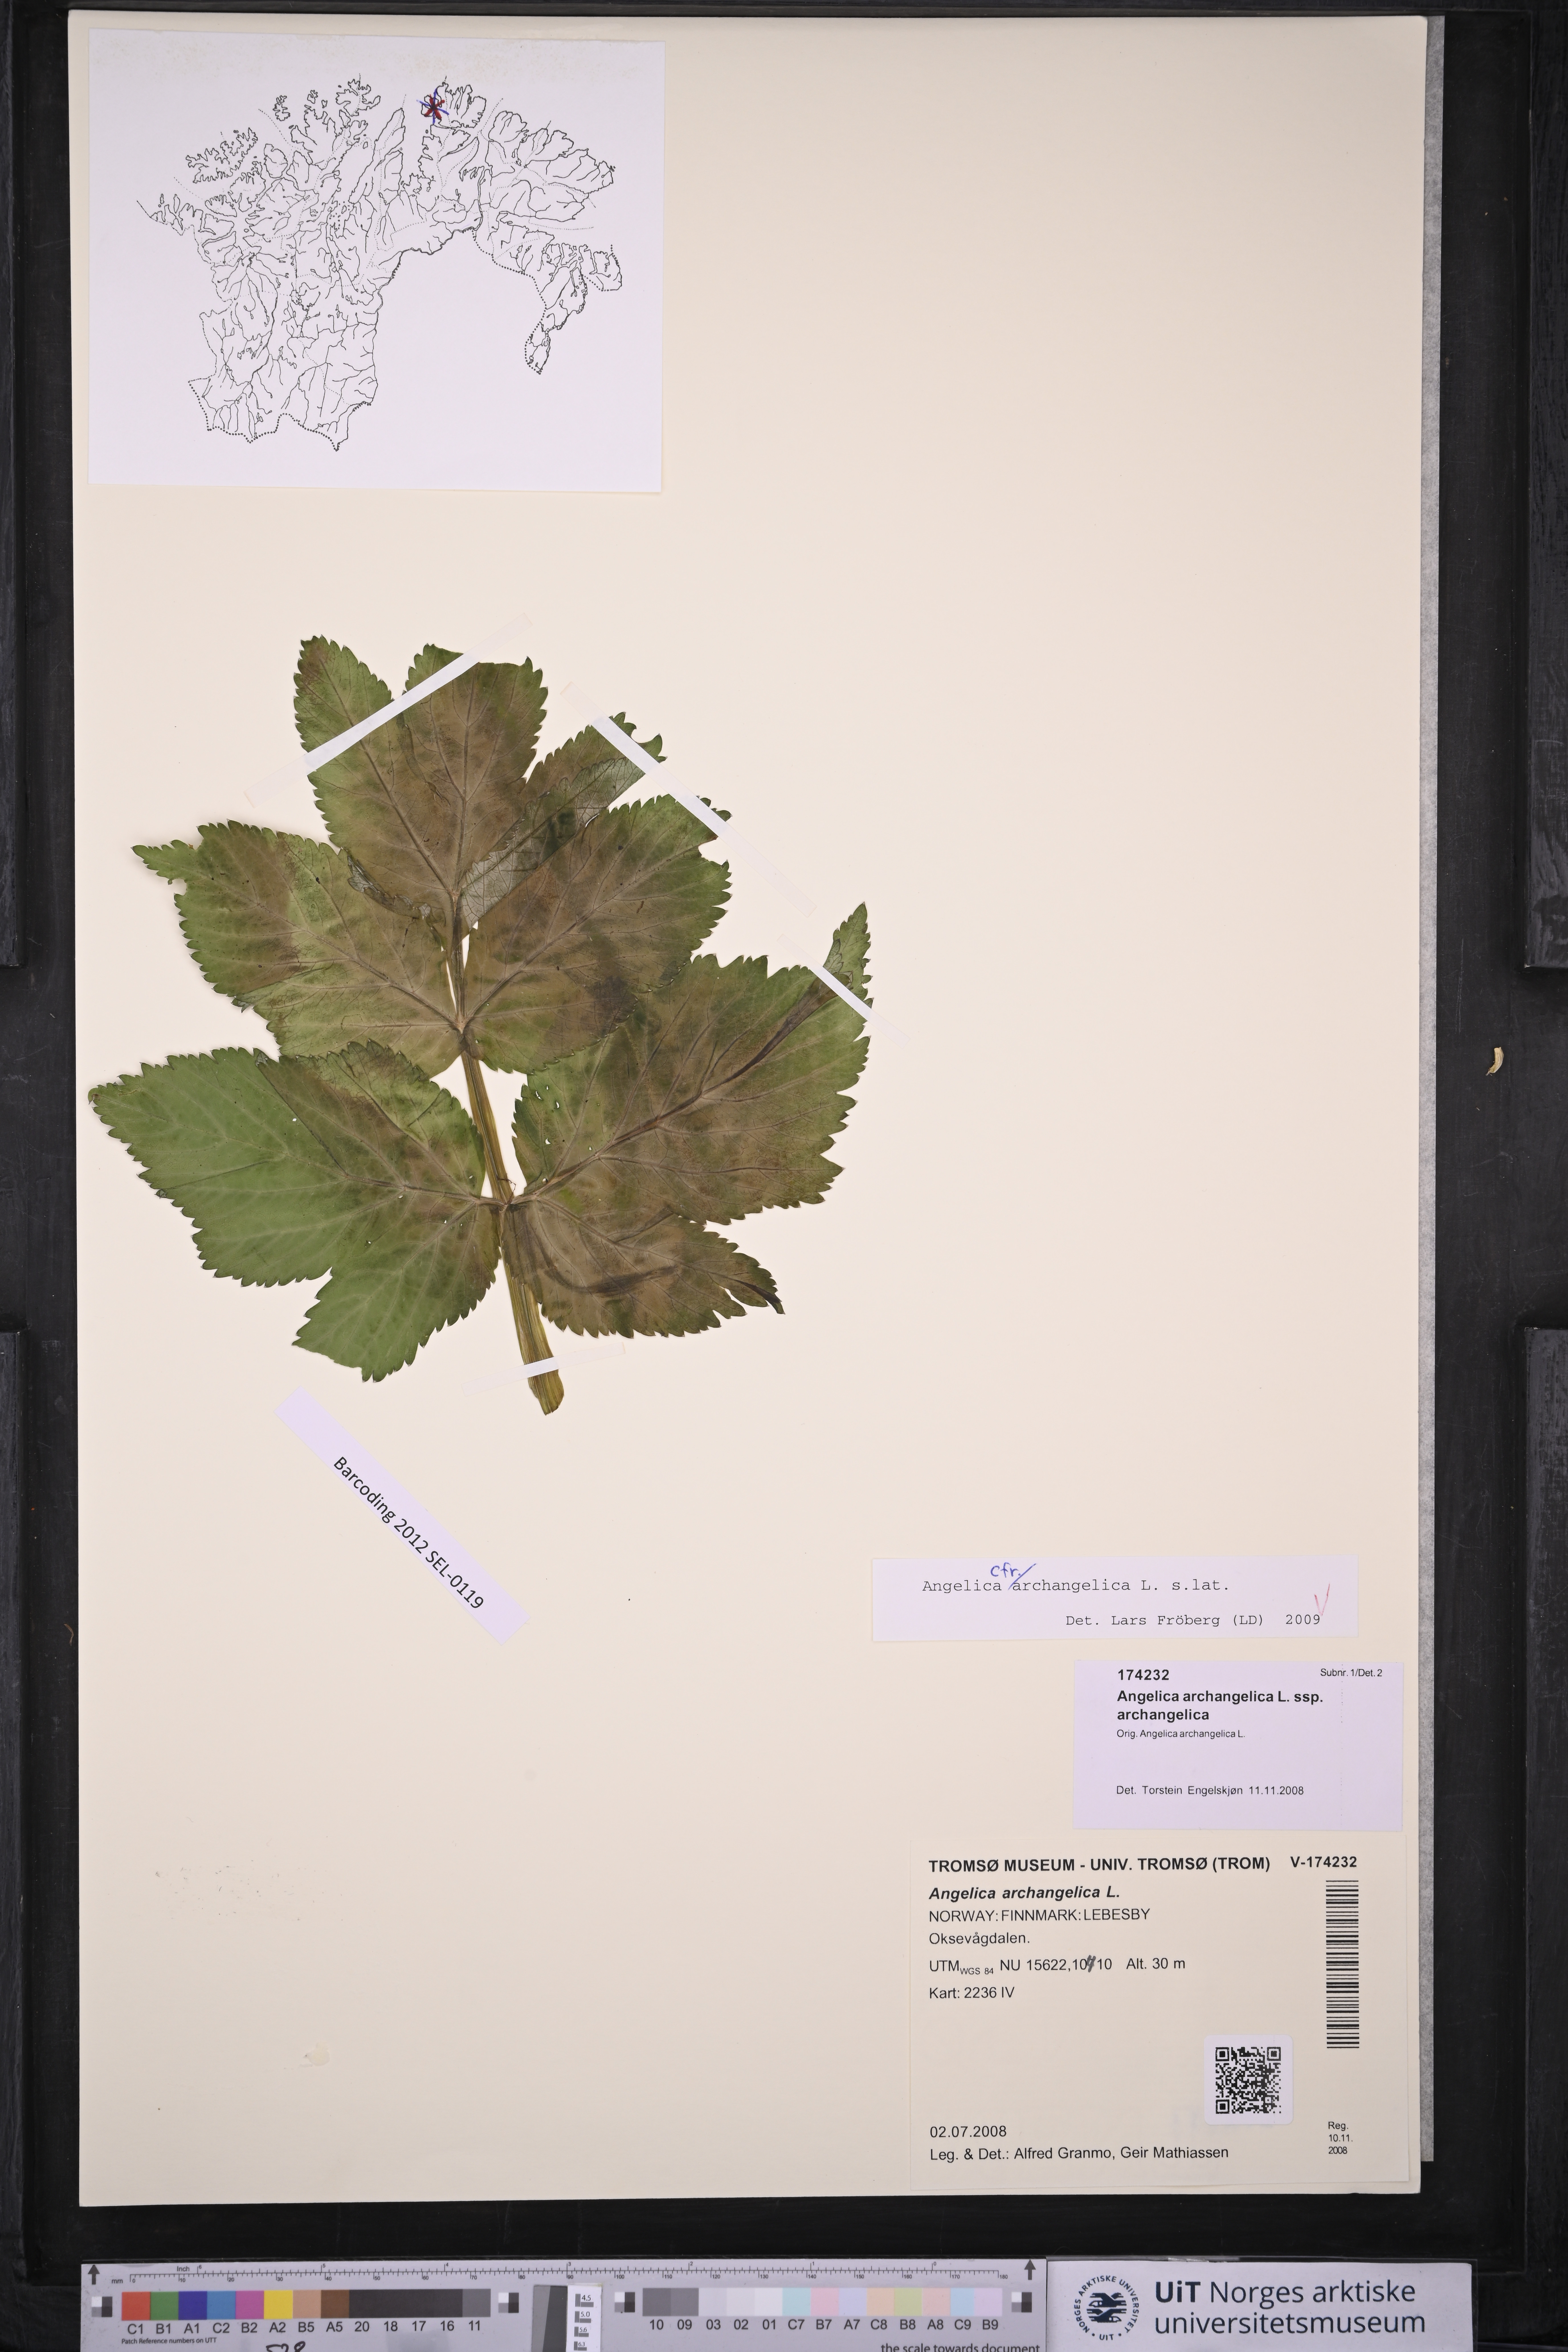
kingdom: Plantae
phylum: Tracheophyta
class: Magnoliopsida
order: Apiales
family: Apiaceae
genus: Angelica
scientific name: Angelica archangelica
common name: Garden angelica
